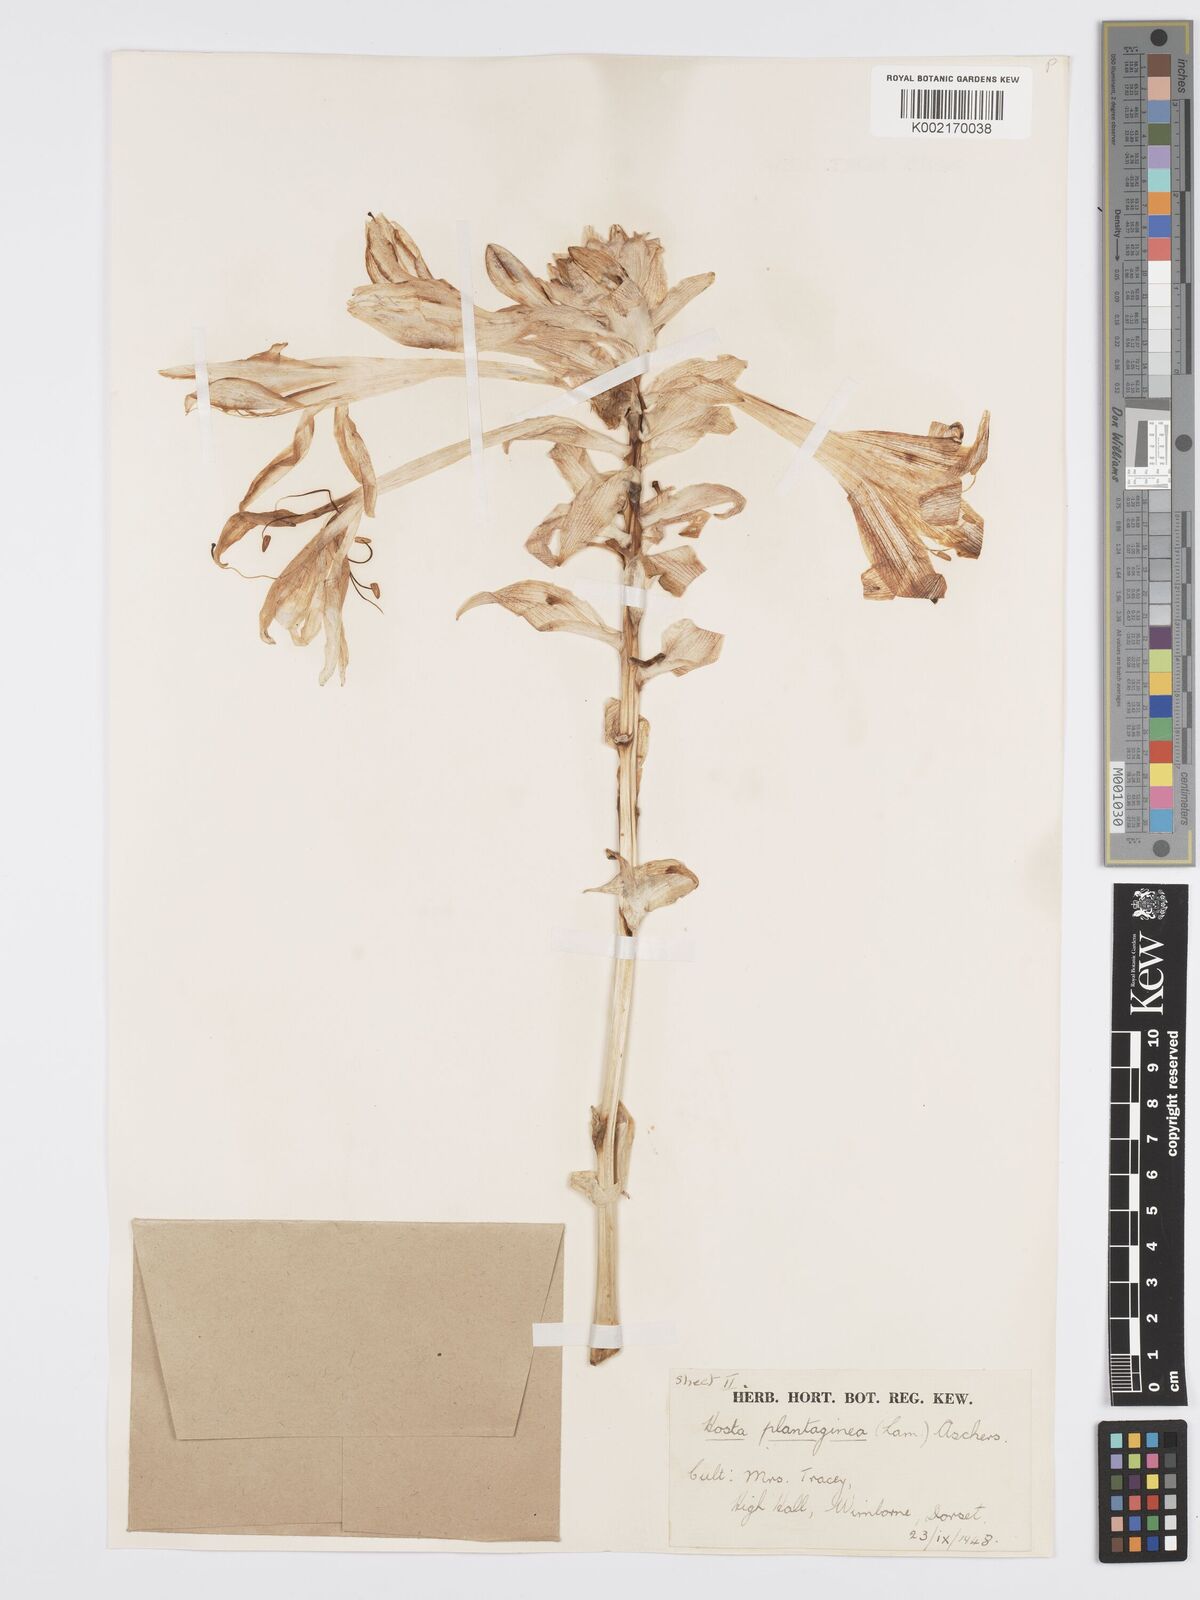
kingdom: Plantae
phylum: Tracheophyta
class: Liliopsida
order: Asparagales
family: Asparagaceae
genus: Hosta
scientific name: Hosta plantaginea
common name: August-lily
